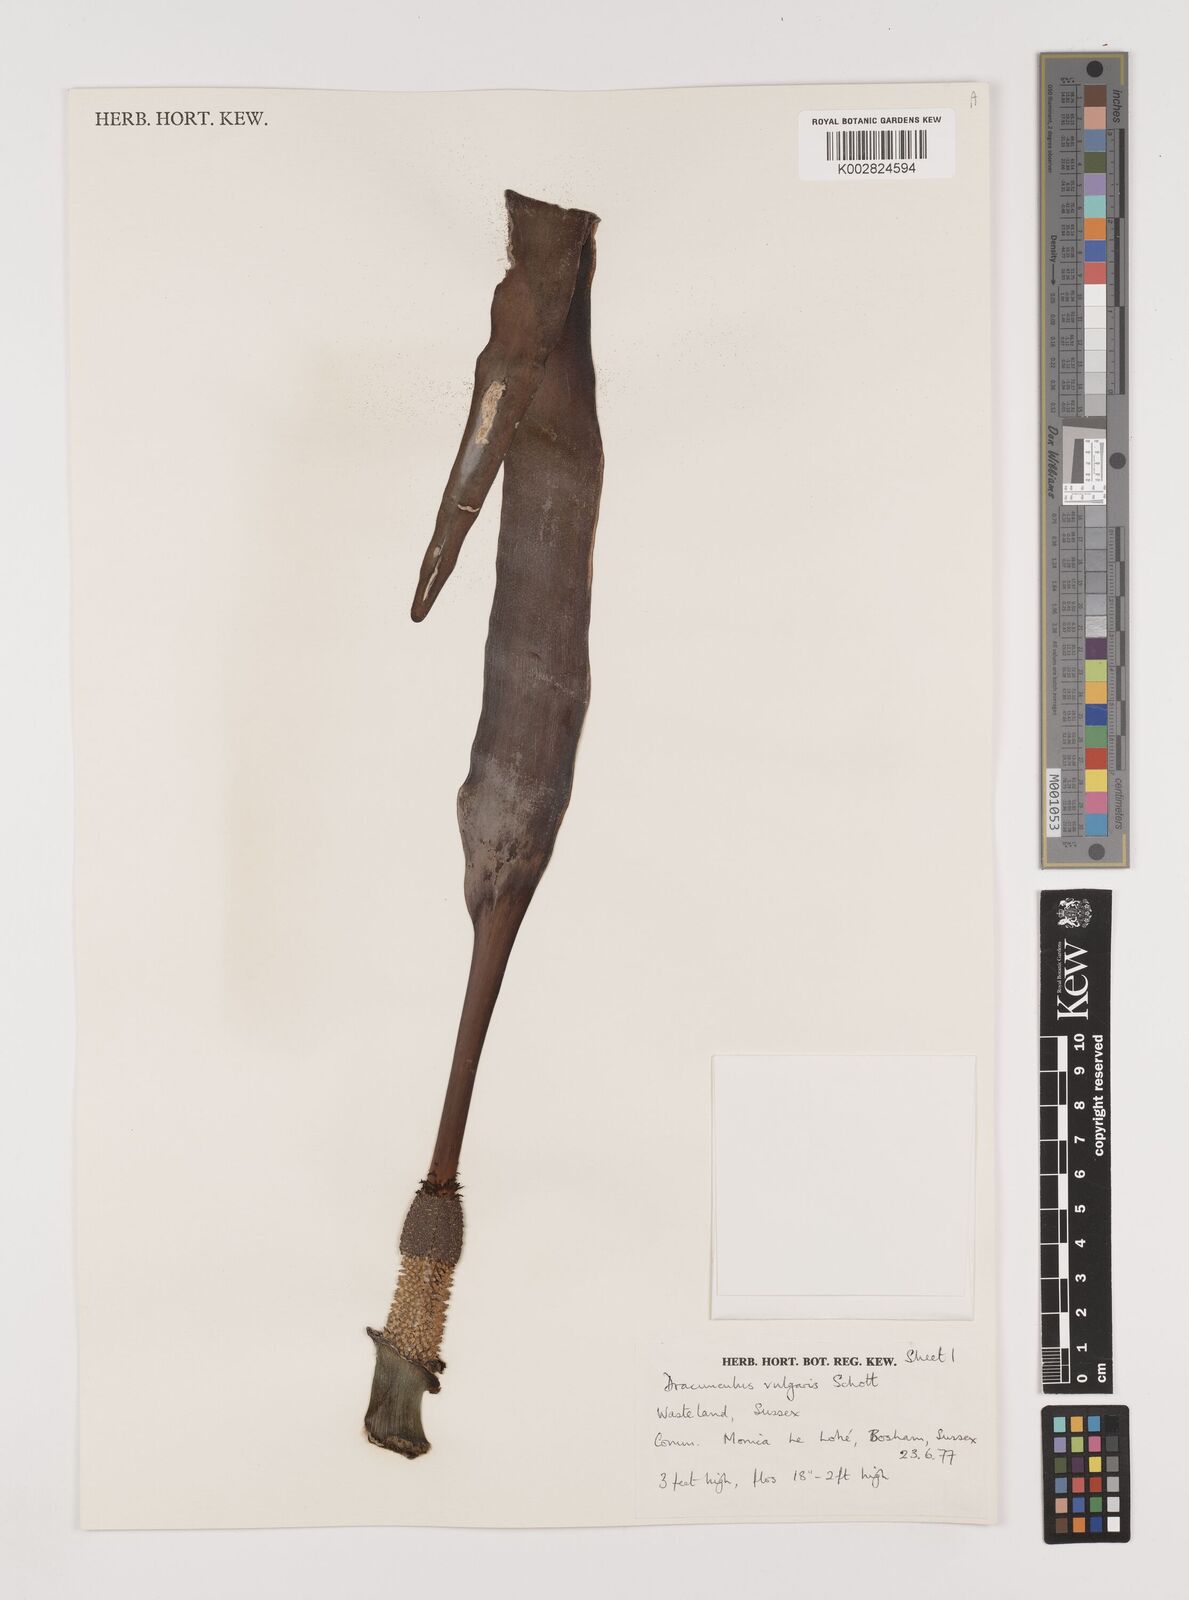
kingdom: Plantae
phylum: Tracheophyta
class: Liliopsida
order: Alismatales
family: Araceae
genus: Dracunculus
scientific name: Dracunculus vulgaris
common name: Dragon arum
